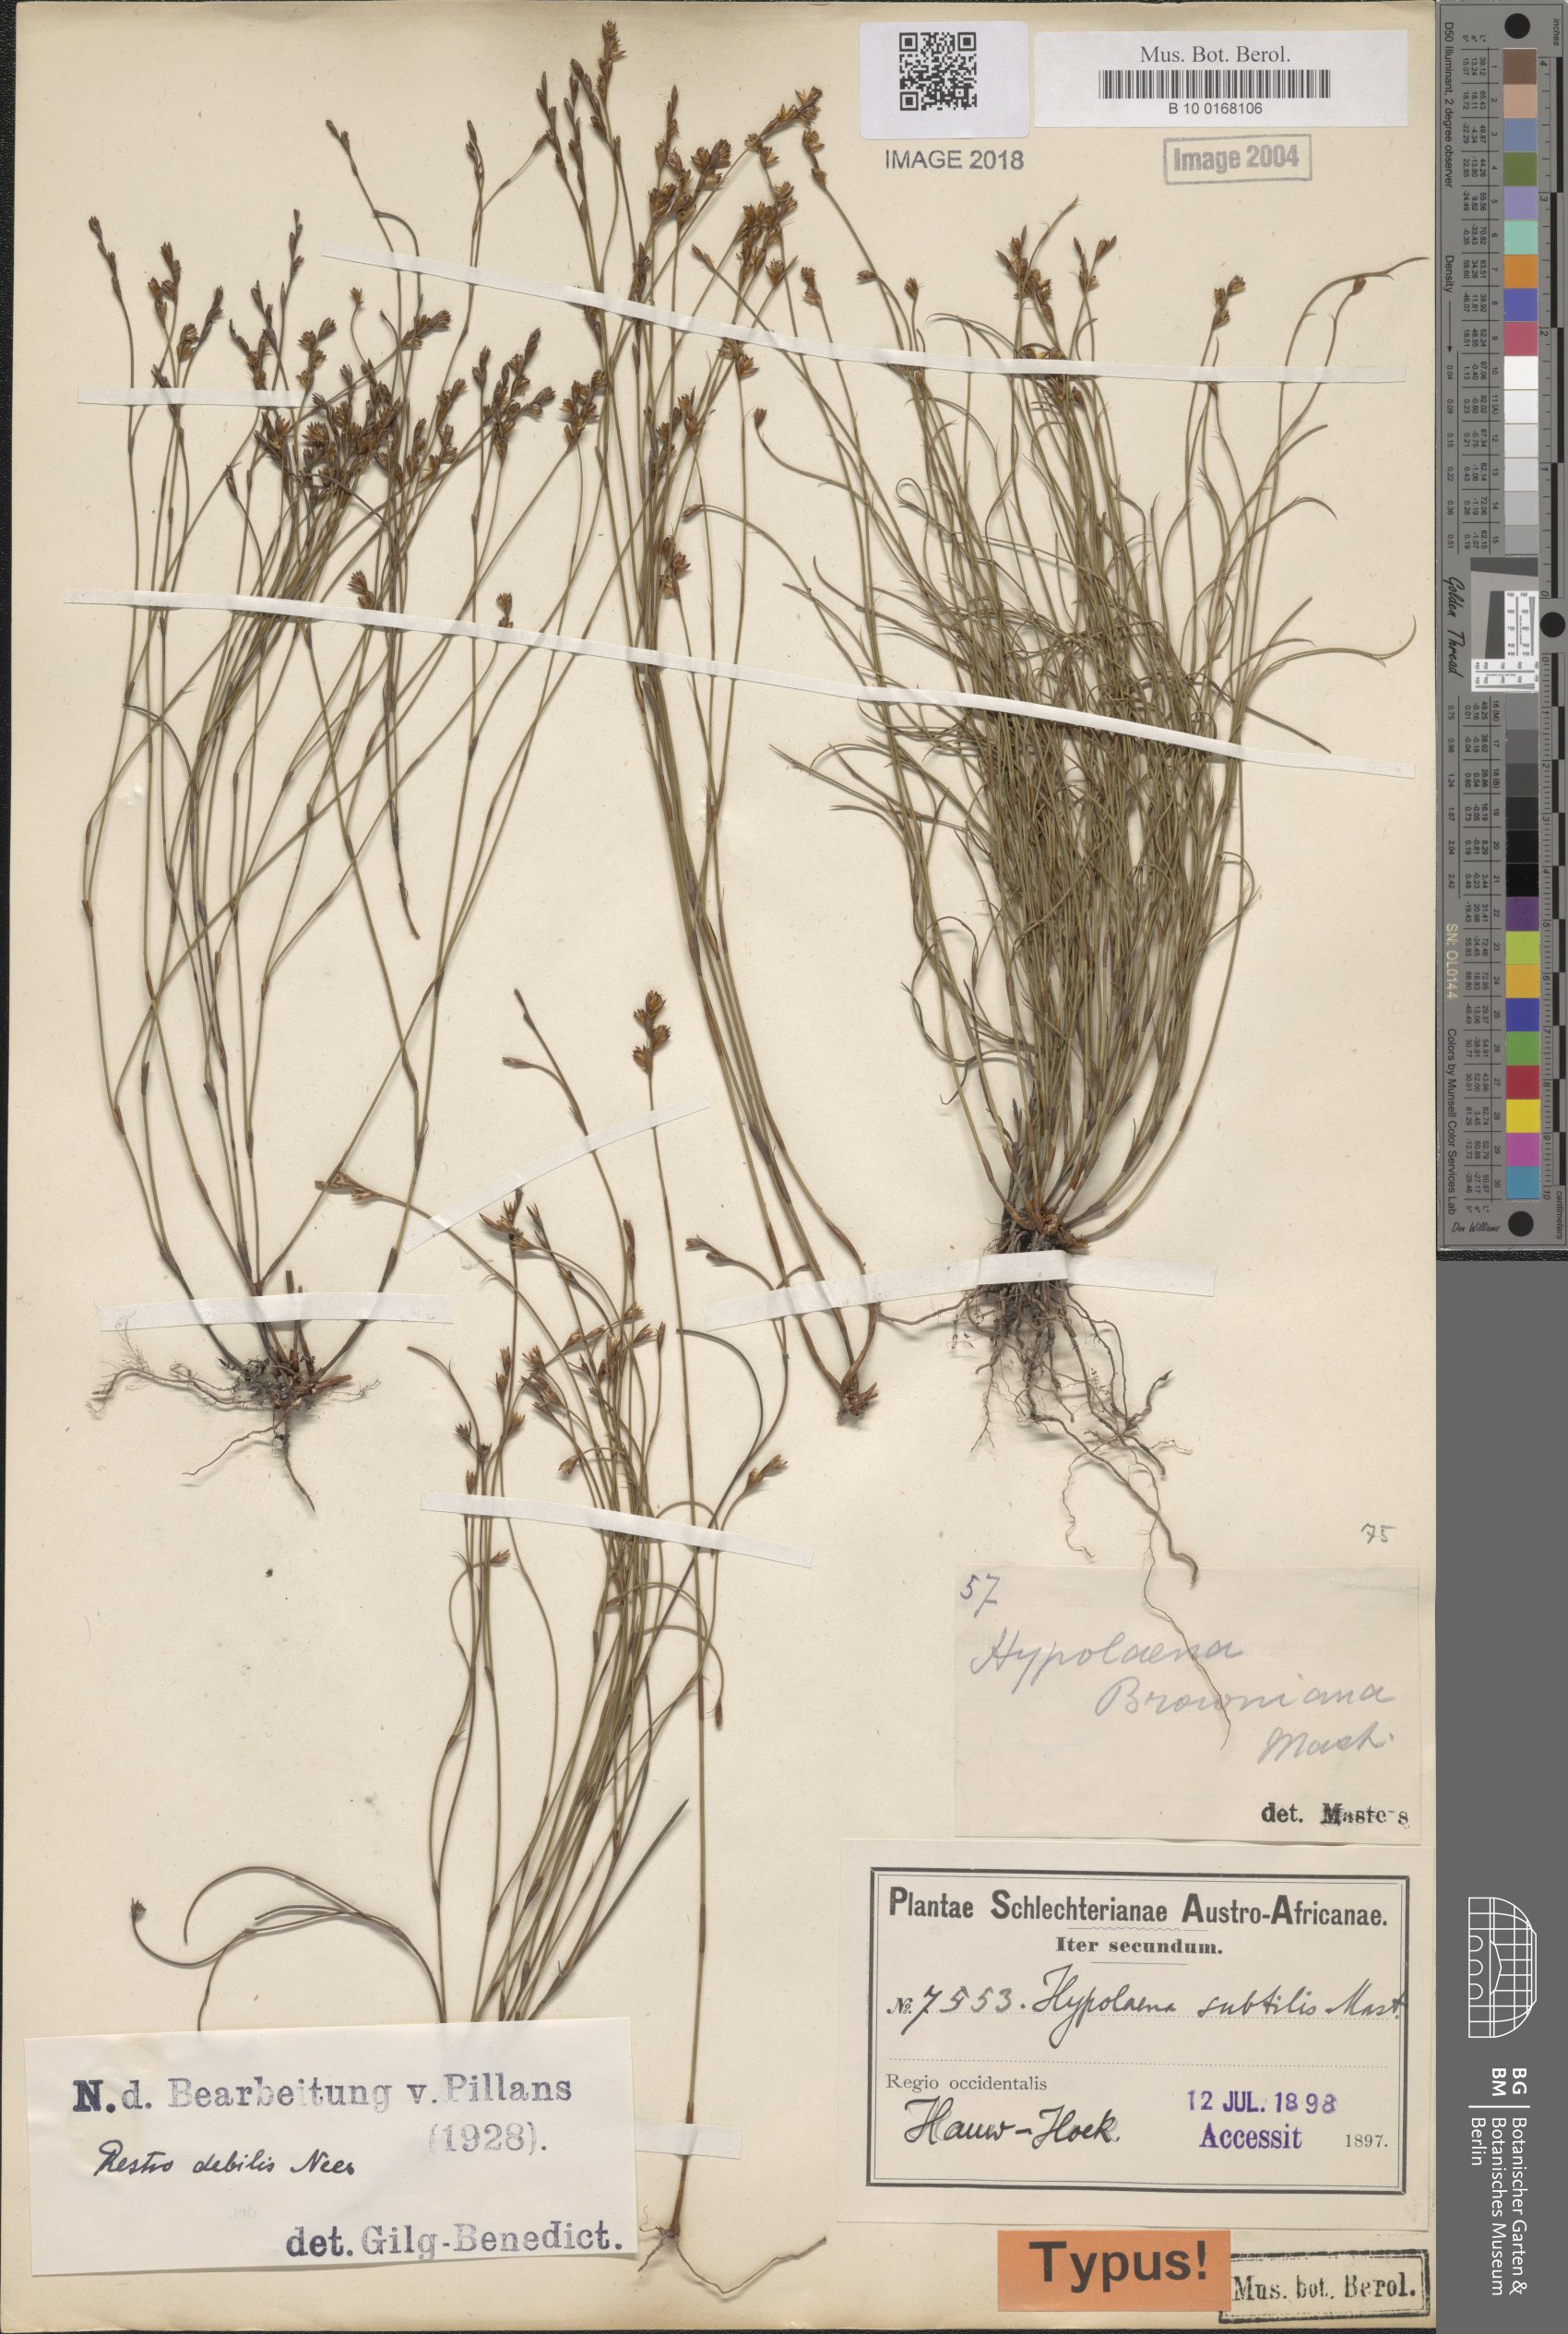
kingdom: Plantae
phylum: Tracheophyta
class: Liliopsida
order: Poales
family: Restionaceae
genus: Restio
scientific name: Restio debilis
